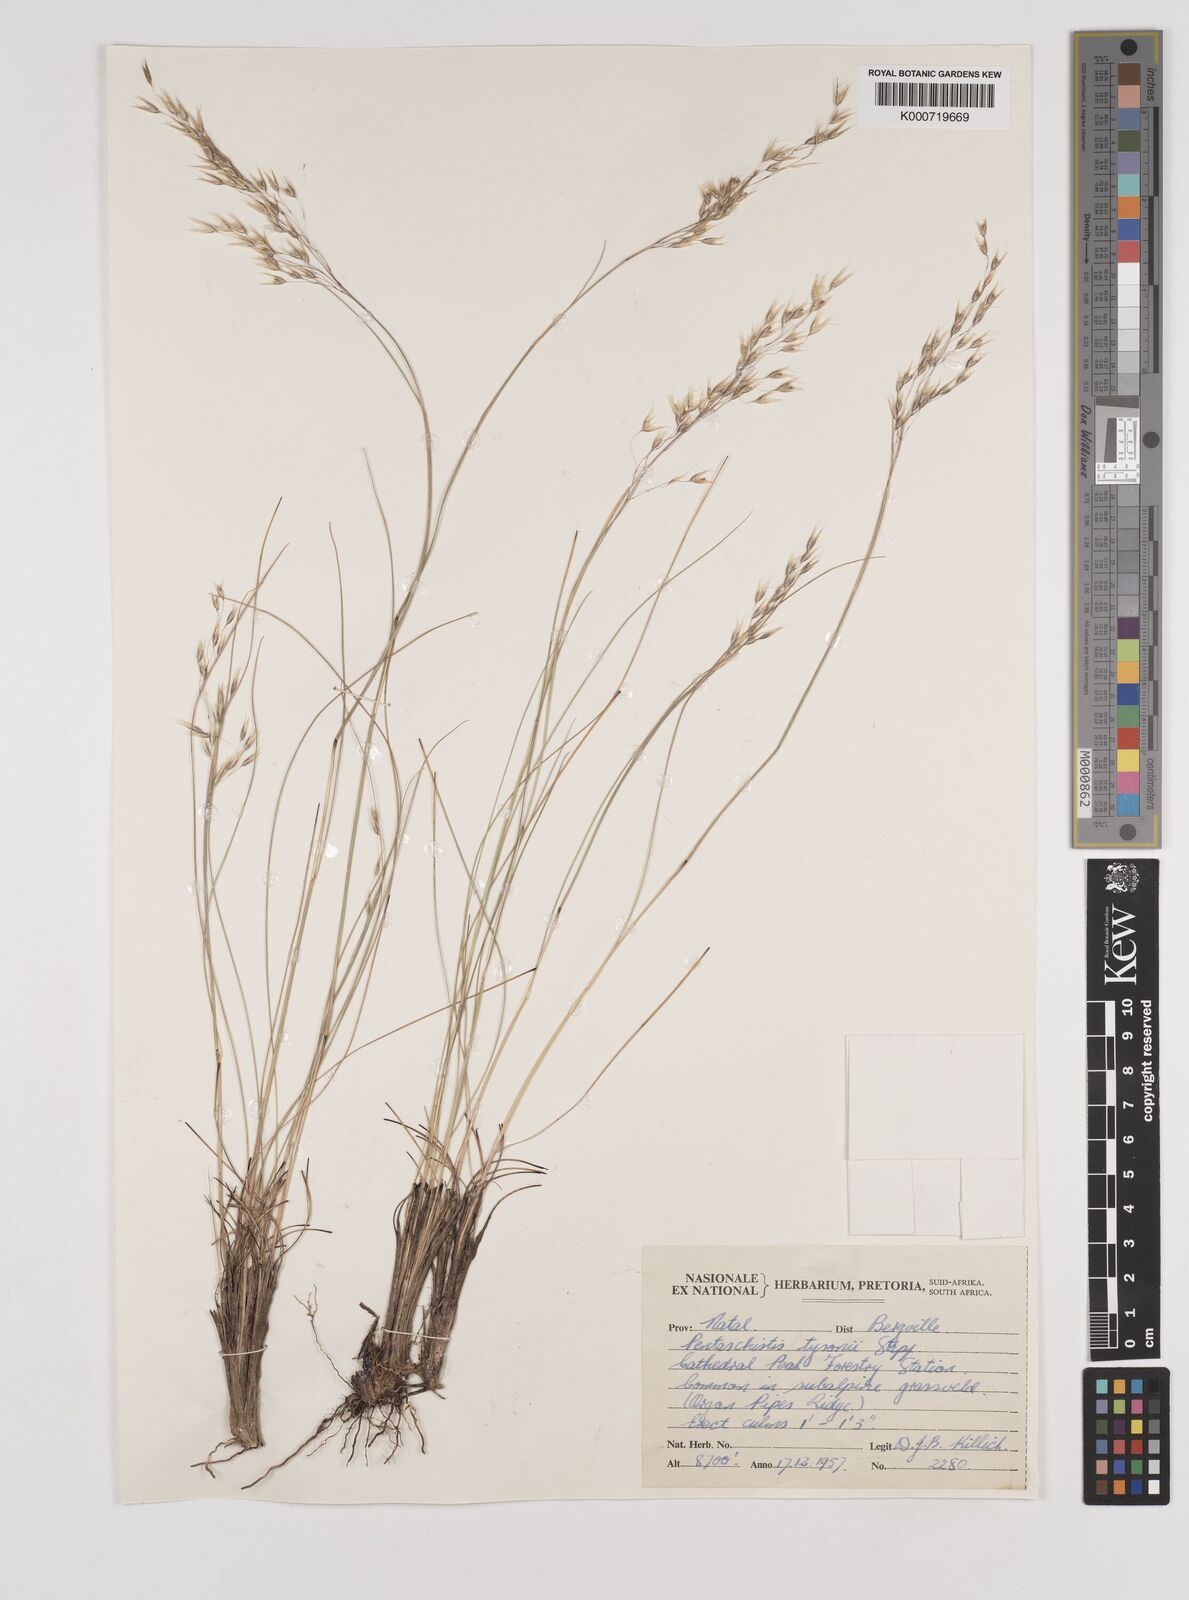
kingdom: Plantae
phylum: Tracheophyta
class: Liliopsida
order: Poales
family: Poaceae
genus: Pentameris
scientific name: Pentameris tysonii
